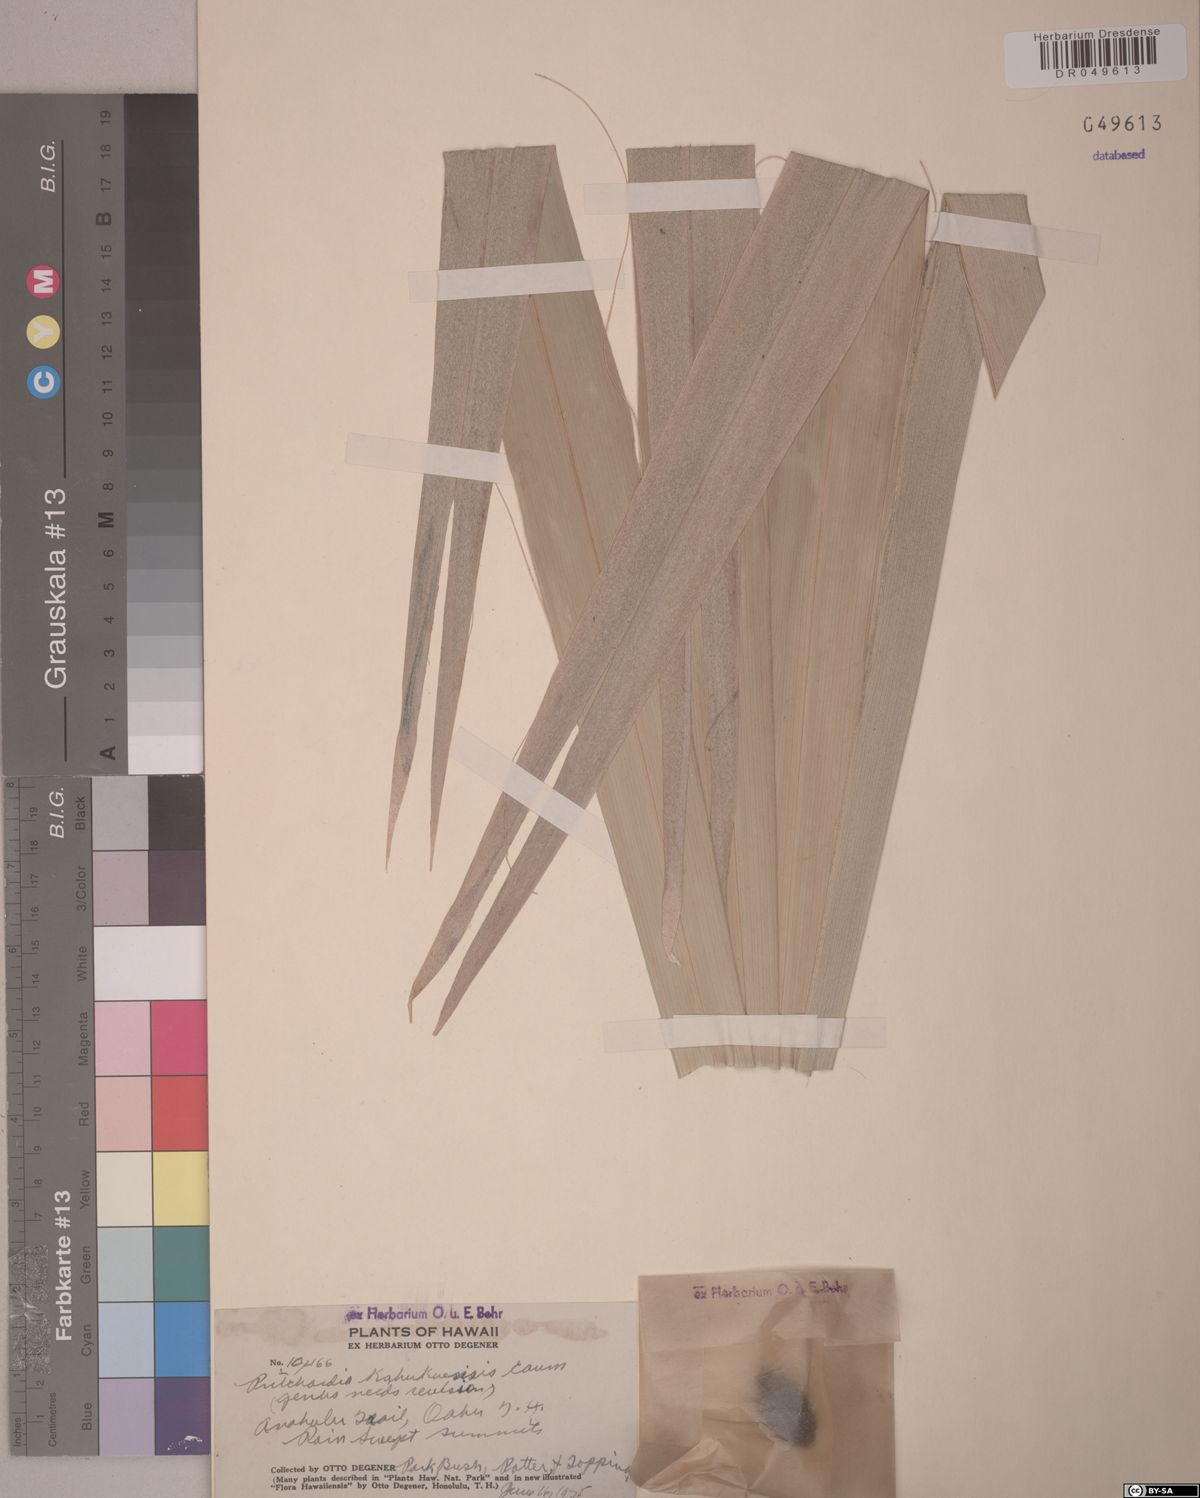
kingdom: Plantae
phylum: Tracheophyta
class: Liliopsida
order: Arecales
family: Arecaceae
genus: Pritchardia
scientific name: Pritchardia kahukuensis
